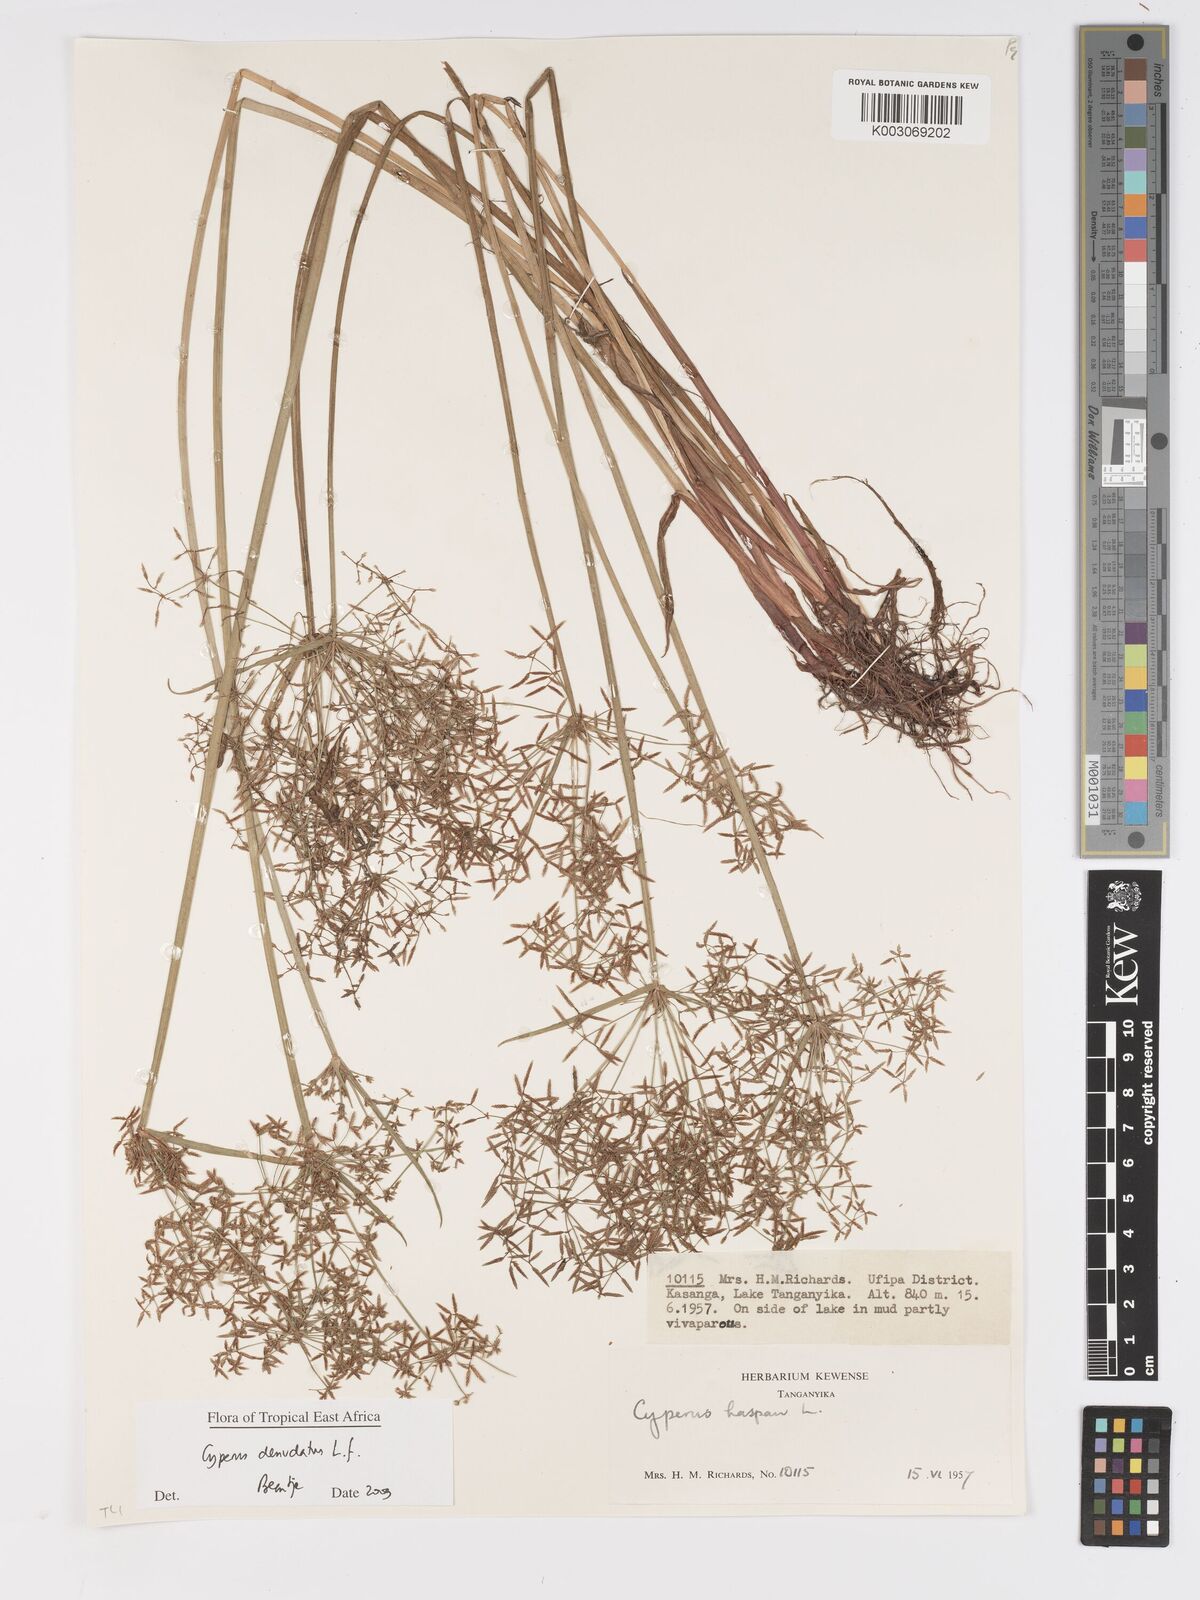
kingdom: Plantae
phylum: Tracheophyta
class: Liliopsida
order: Poales
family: Cyperaceae
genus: Cyperus
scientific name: Cyperus denudatus
